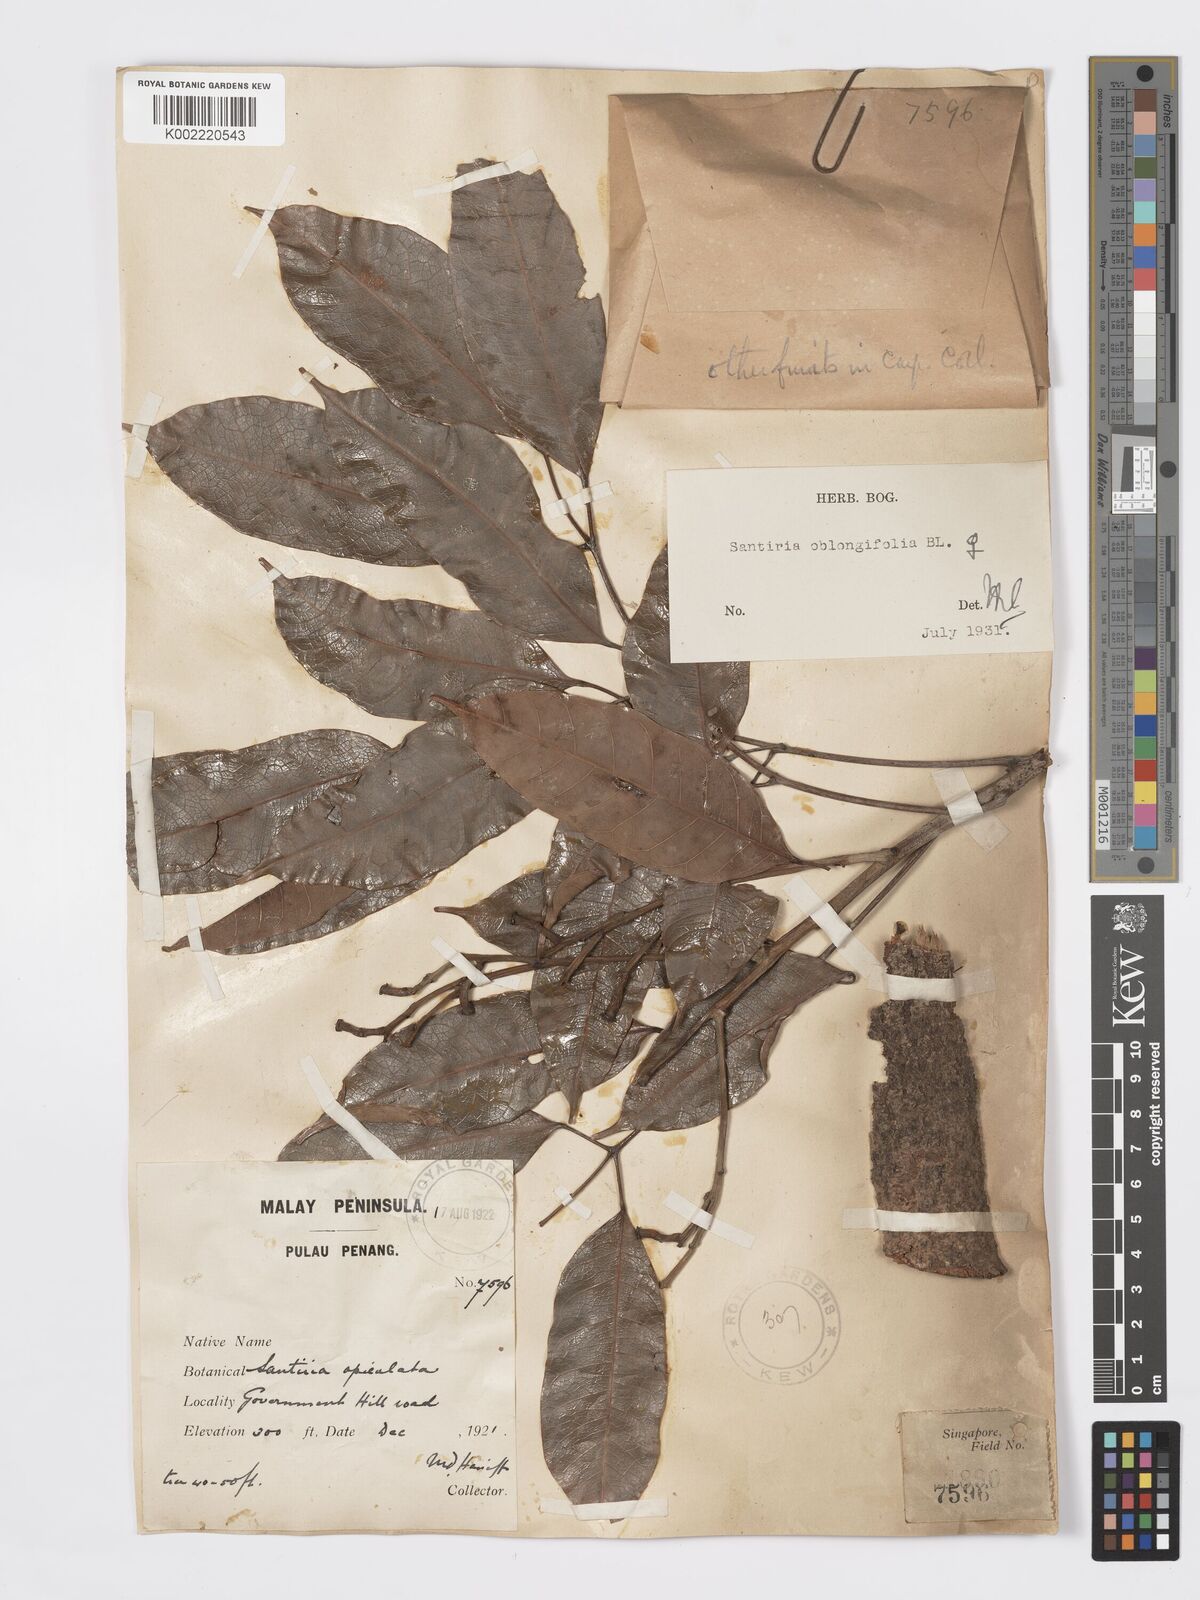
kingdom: Plantae
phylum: Tracheophyta
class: Magnoliopsida
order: Sapindales
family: Burseraceae
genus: Santiria
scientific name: Santiria oblongifolia
